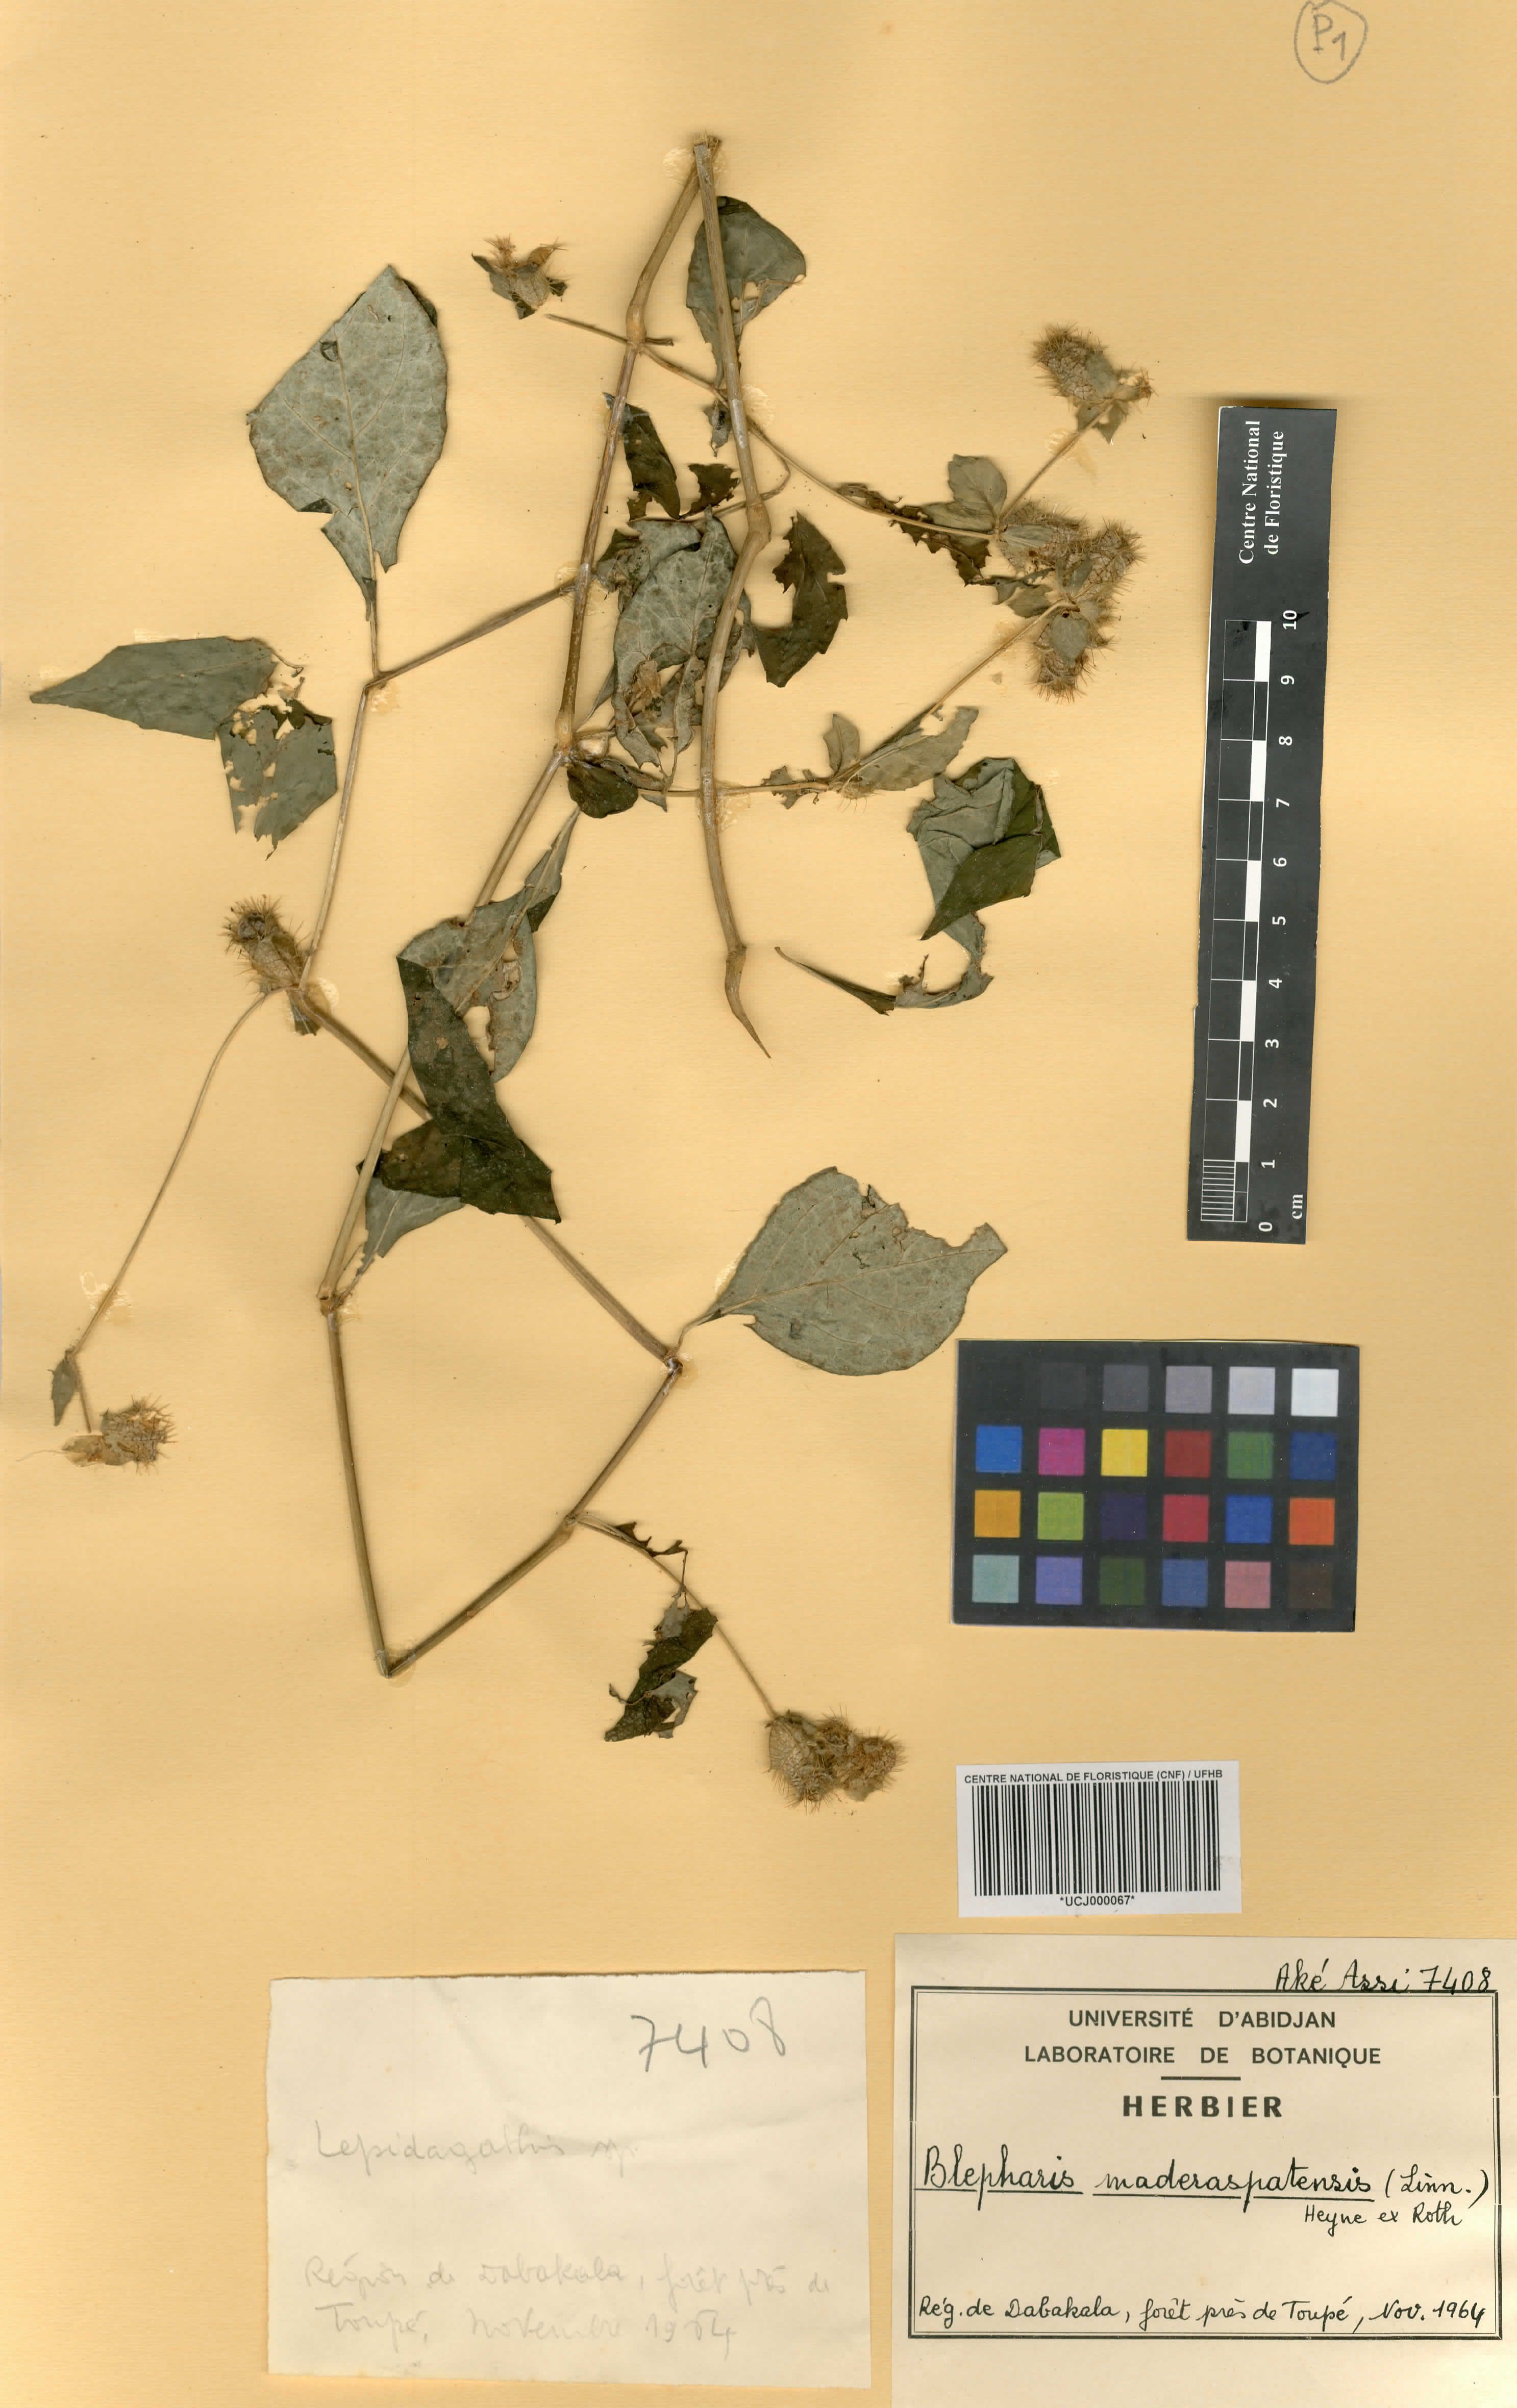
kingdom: Plantae
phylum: Tracheophyta
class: Magnoliopsida
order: Lamiales
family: Acanthaceae
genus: Blepharis
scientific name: Blepharis maderaspatensis
